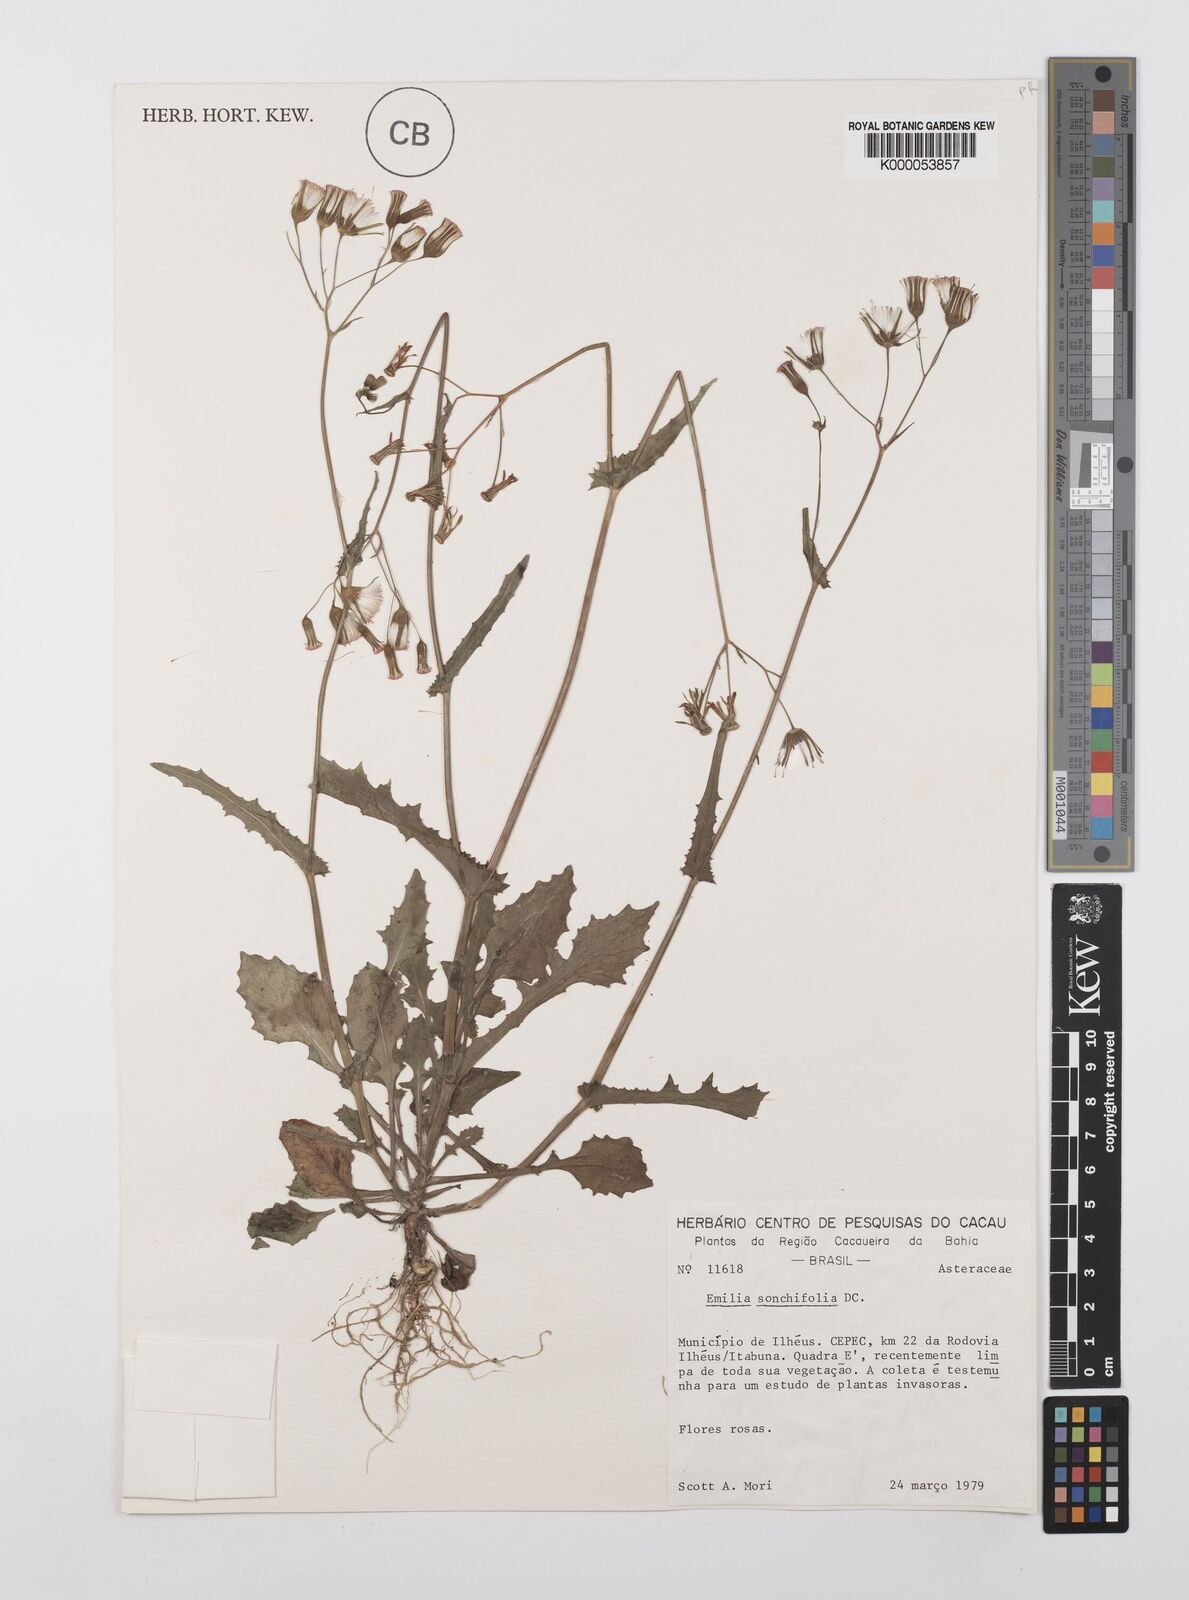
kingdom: Plantae
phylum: Tracheophyta
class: Magnoliopsida
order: Asterales
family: Asteraceae
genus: Emilia
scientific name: Emilia
